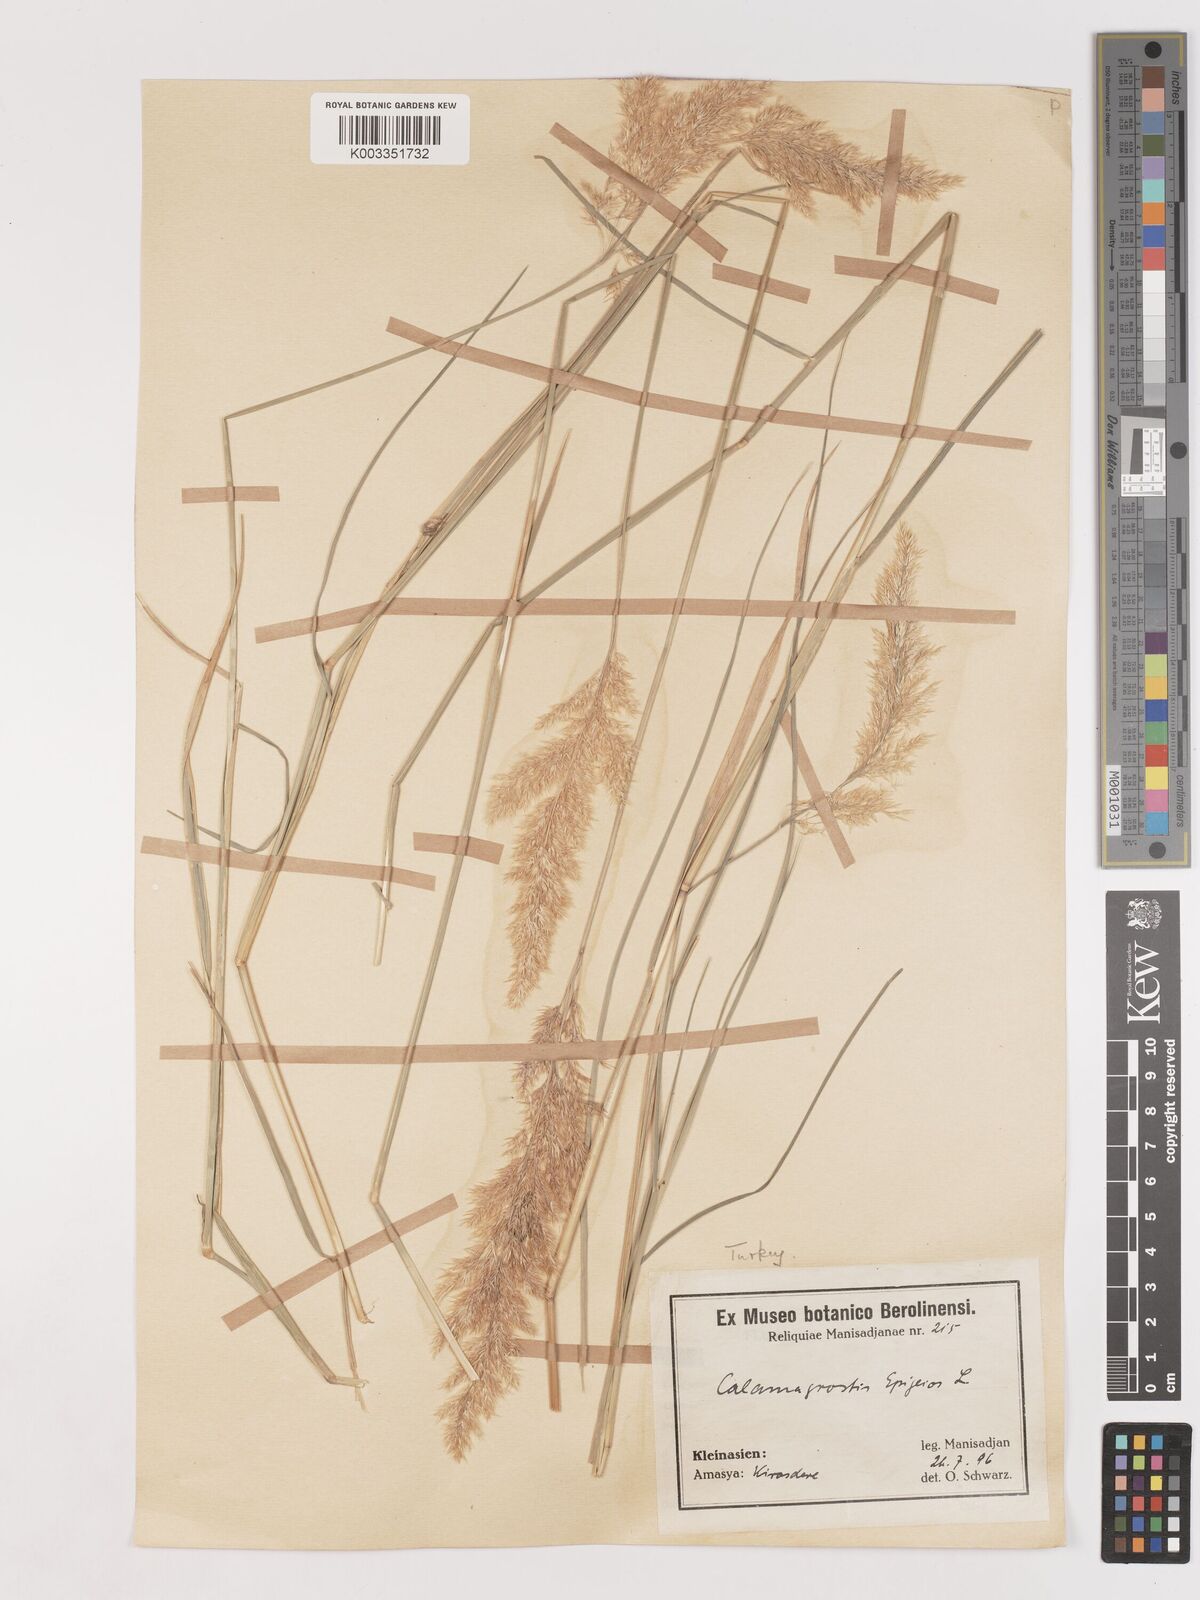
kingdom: Plantae
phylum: Tracheophyta
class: Liliopsida
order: Poales
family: Poaceae
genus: Calamagrostis
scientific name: Calamagrostis
